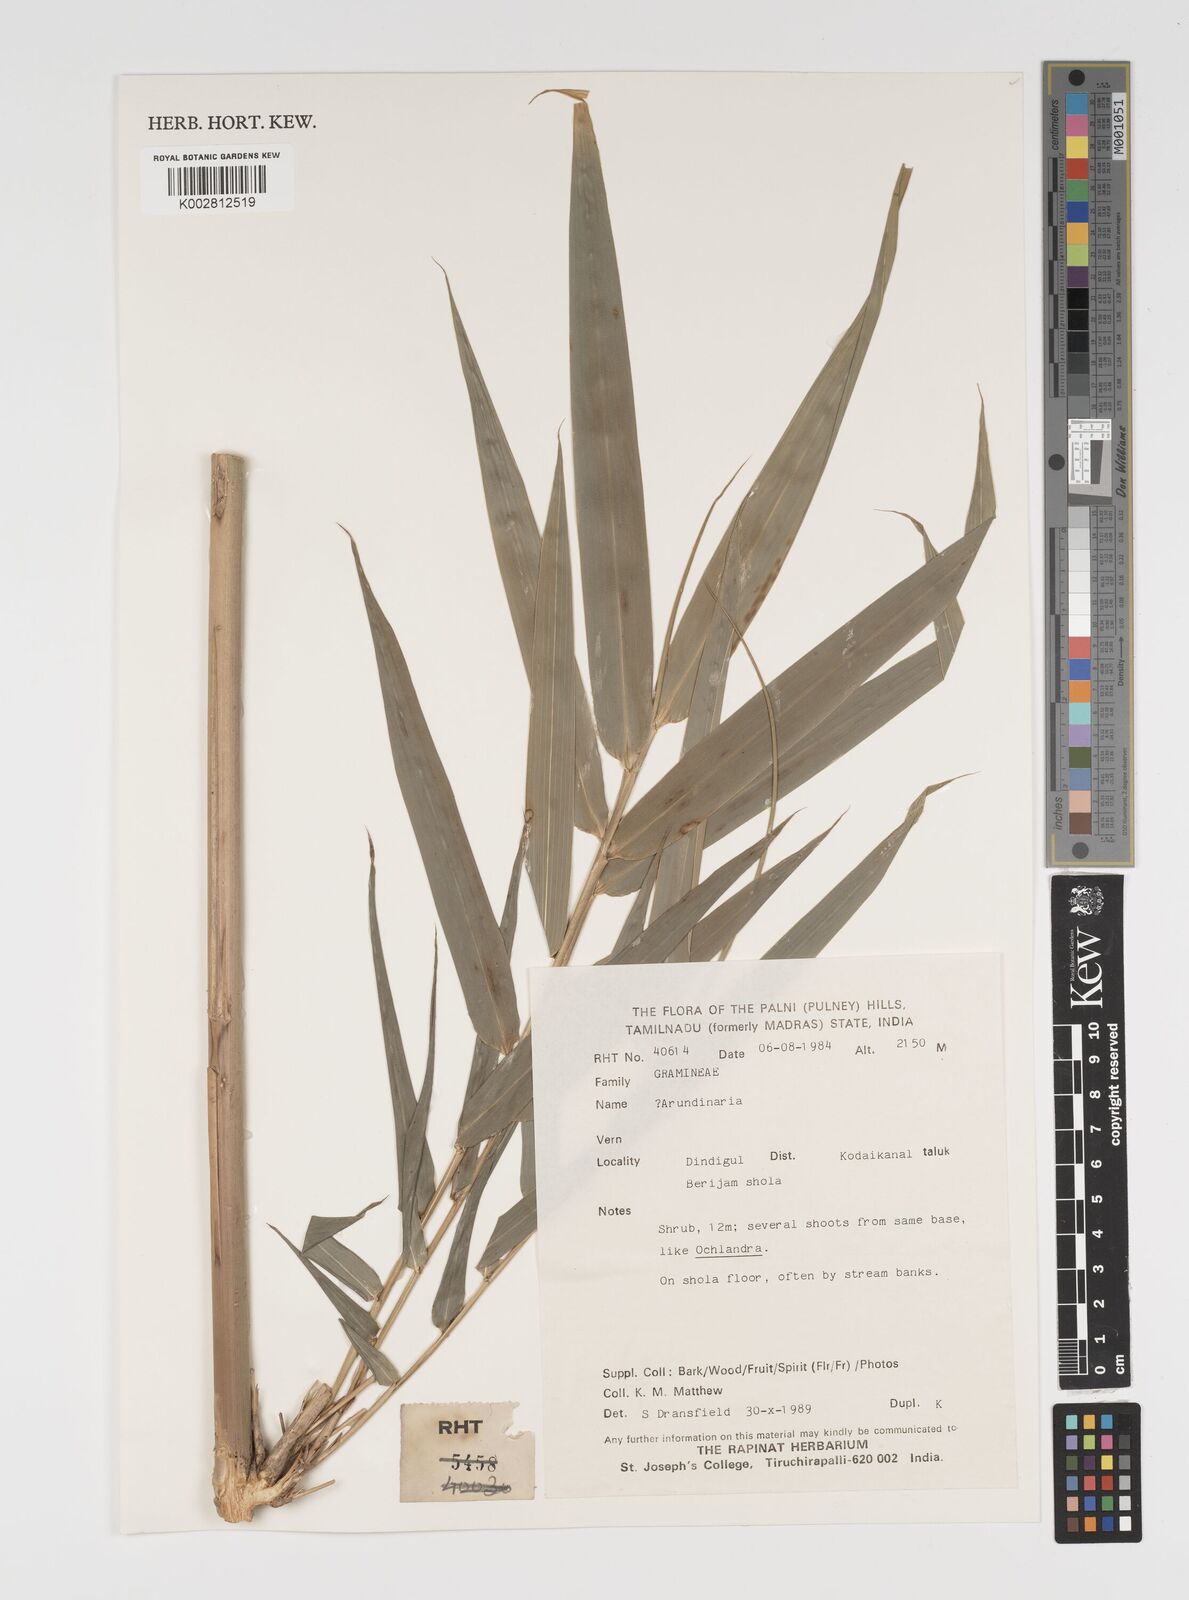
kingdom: Plantae
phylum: Tracheophyta
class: Liliopsida
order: Poales
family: Poaceae
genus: Arundinaria
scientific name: Arundinaria
